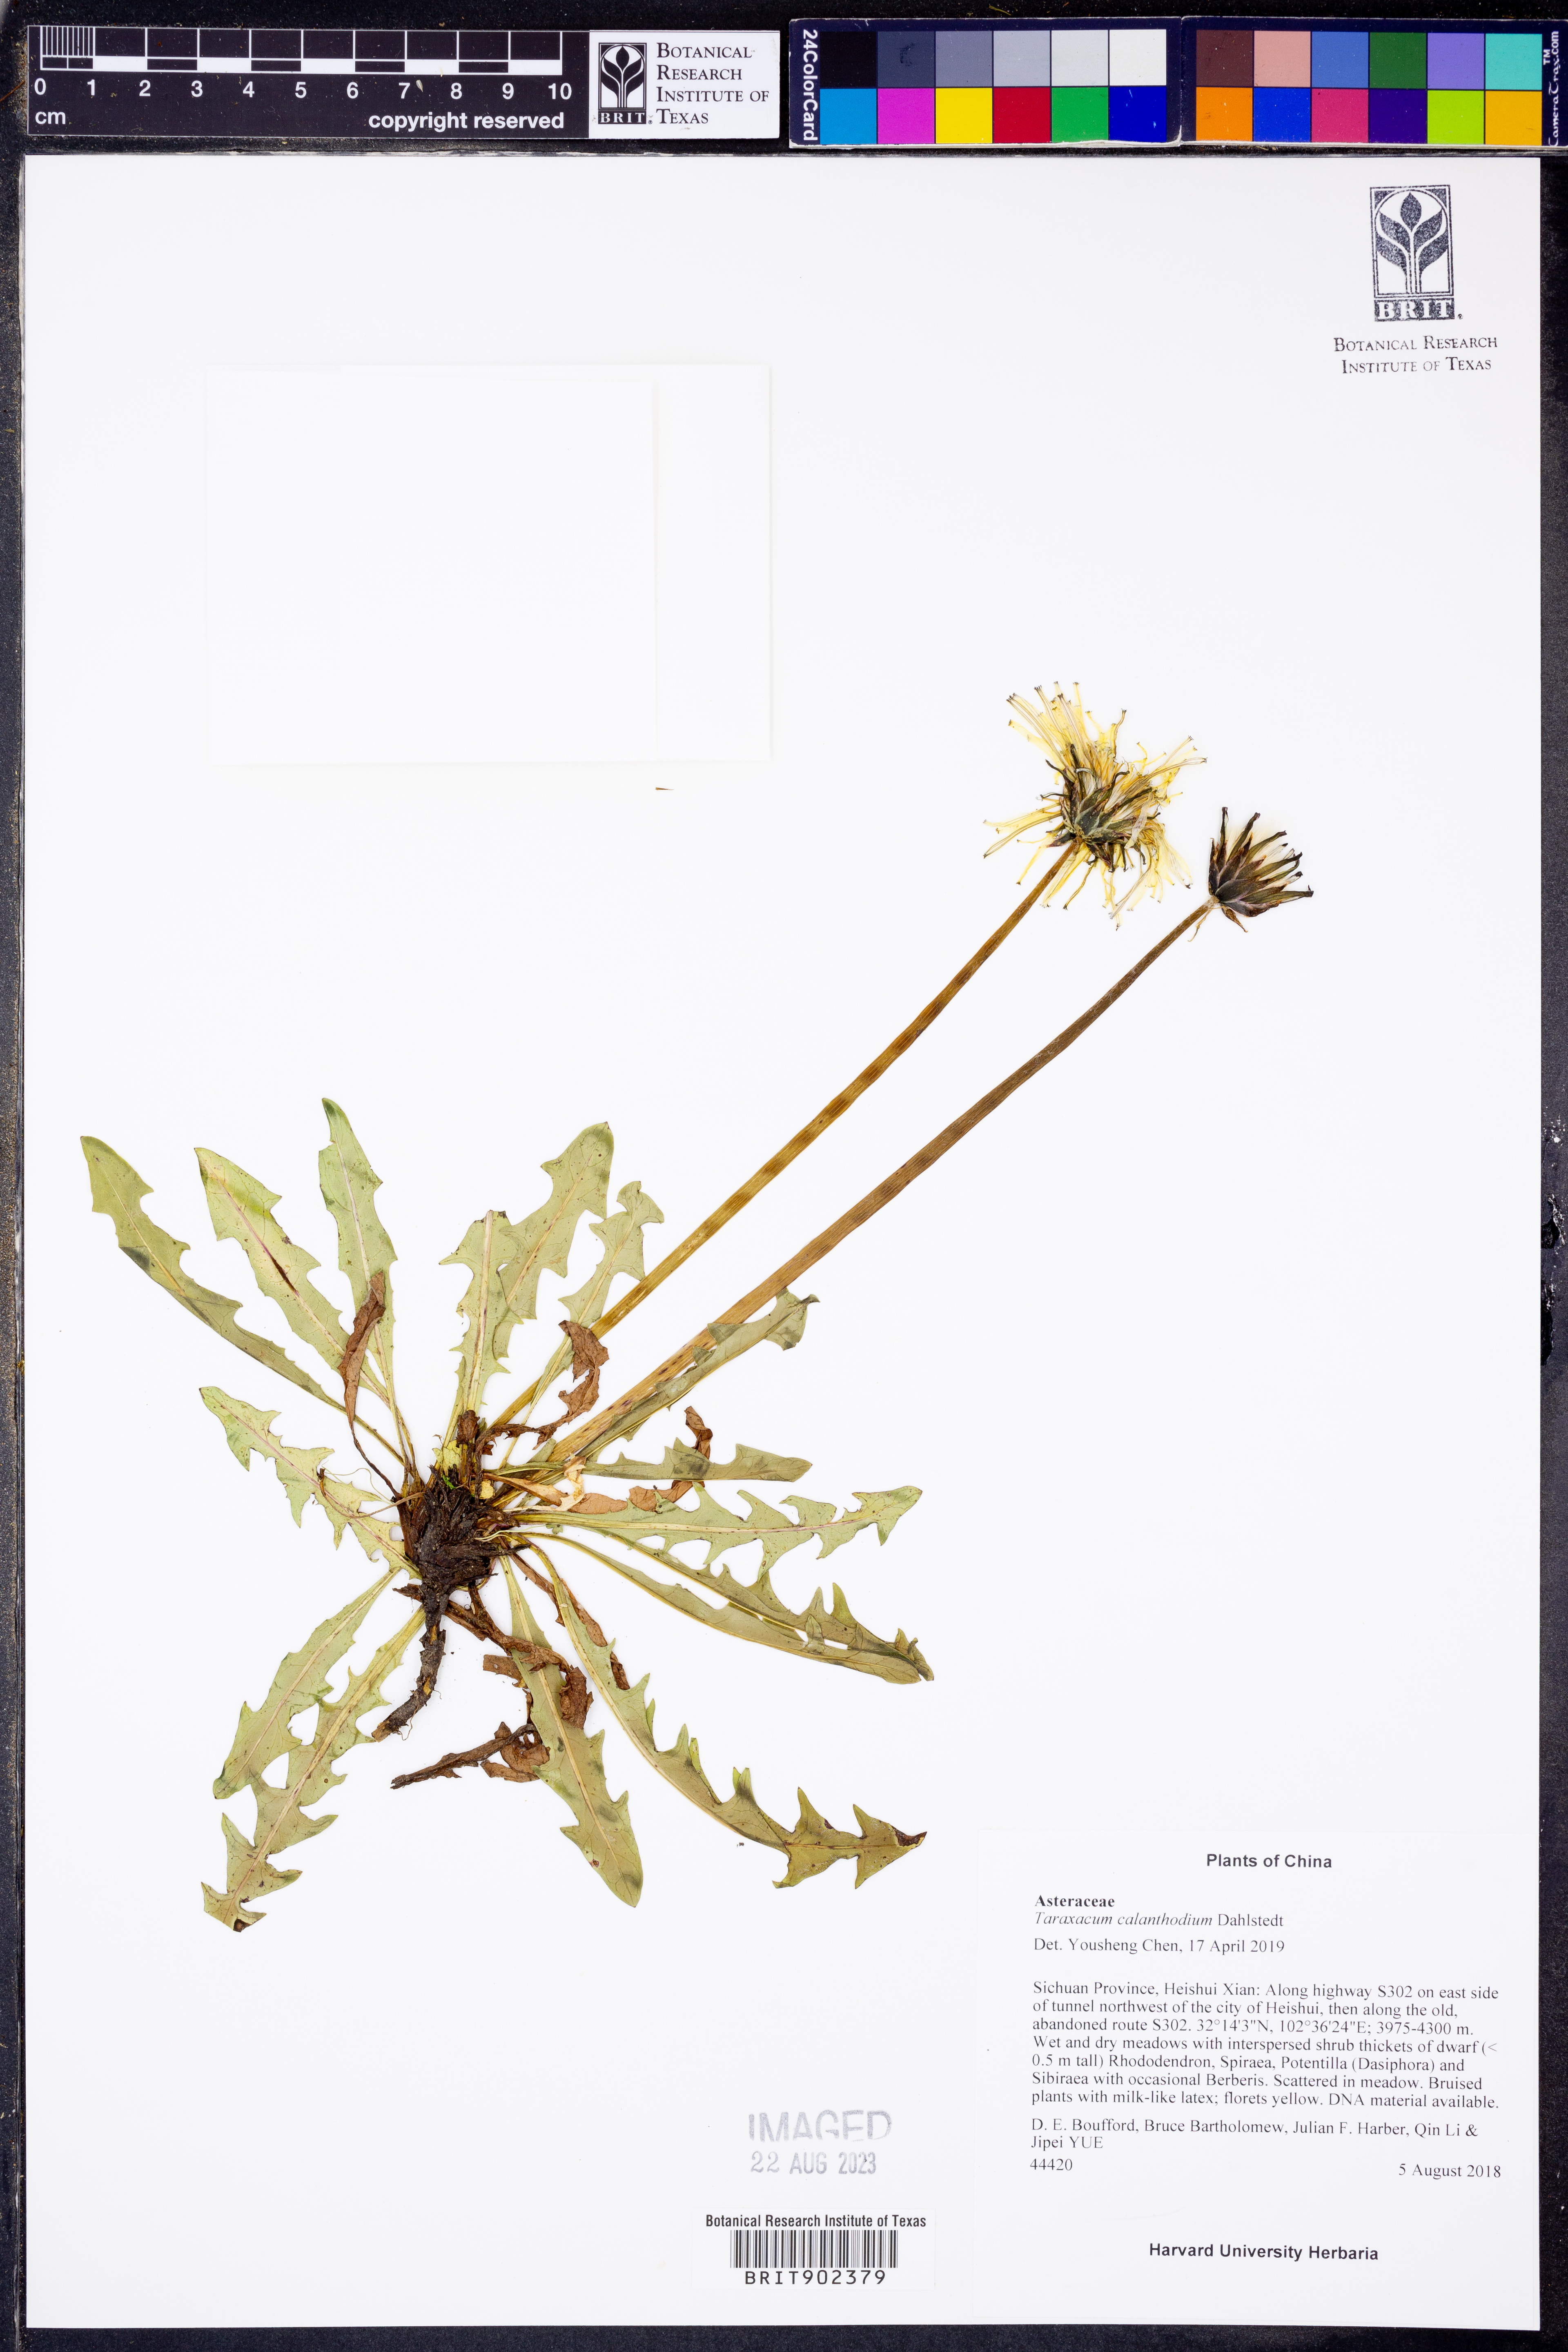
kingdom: Plantae
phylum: Tracheophyta
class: Magnoliopsida
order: Asterales
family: Asteraceae
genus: Taraxacum
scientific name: Taraxacum
